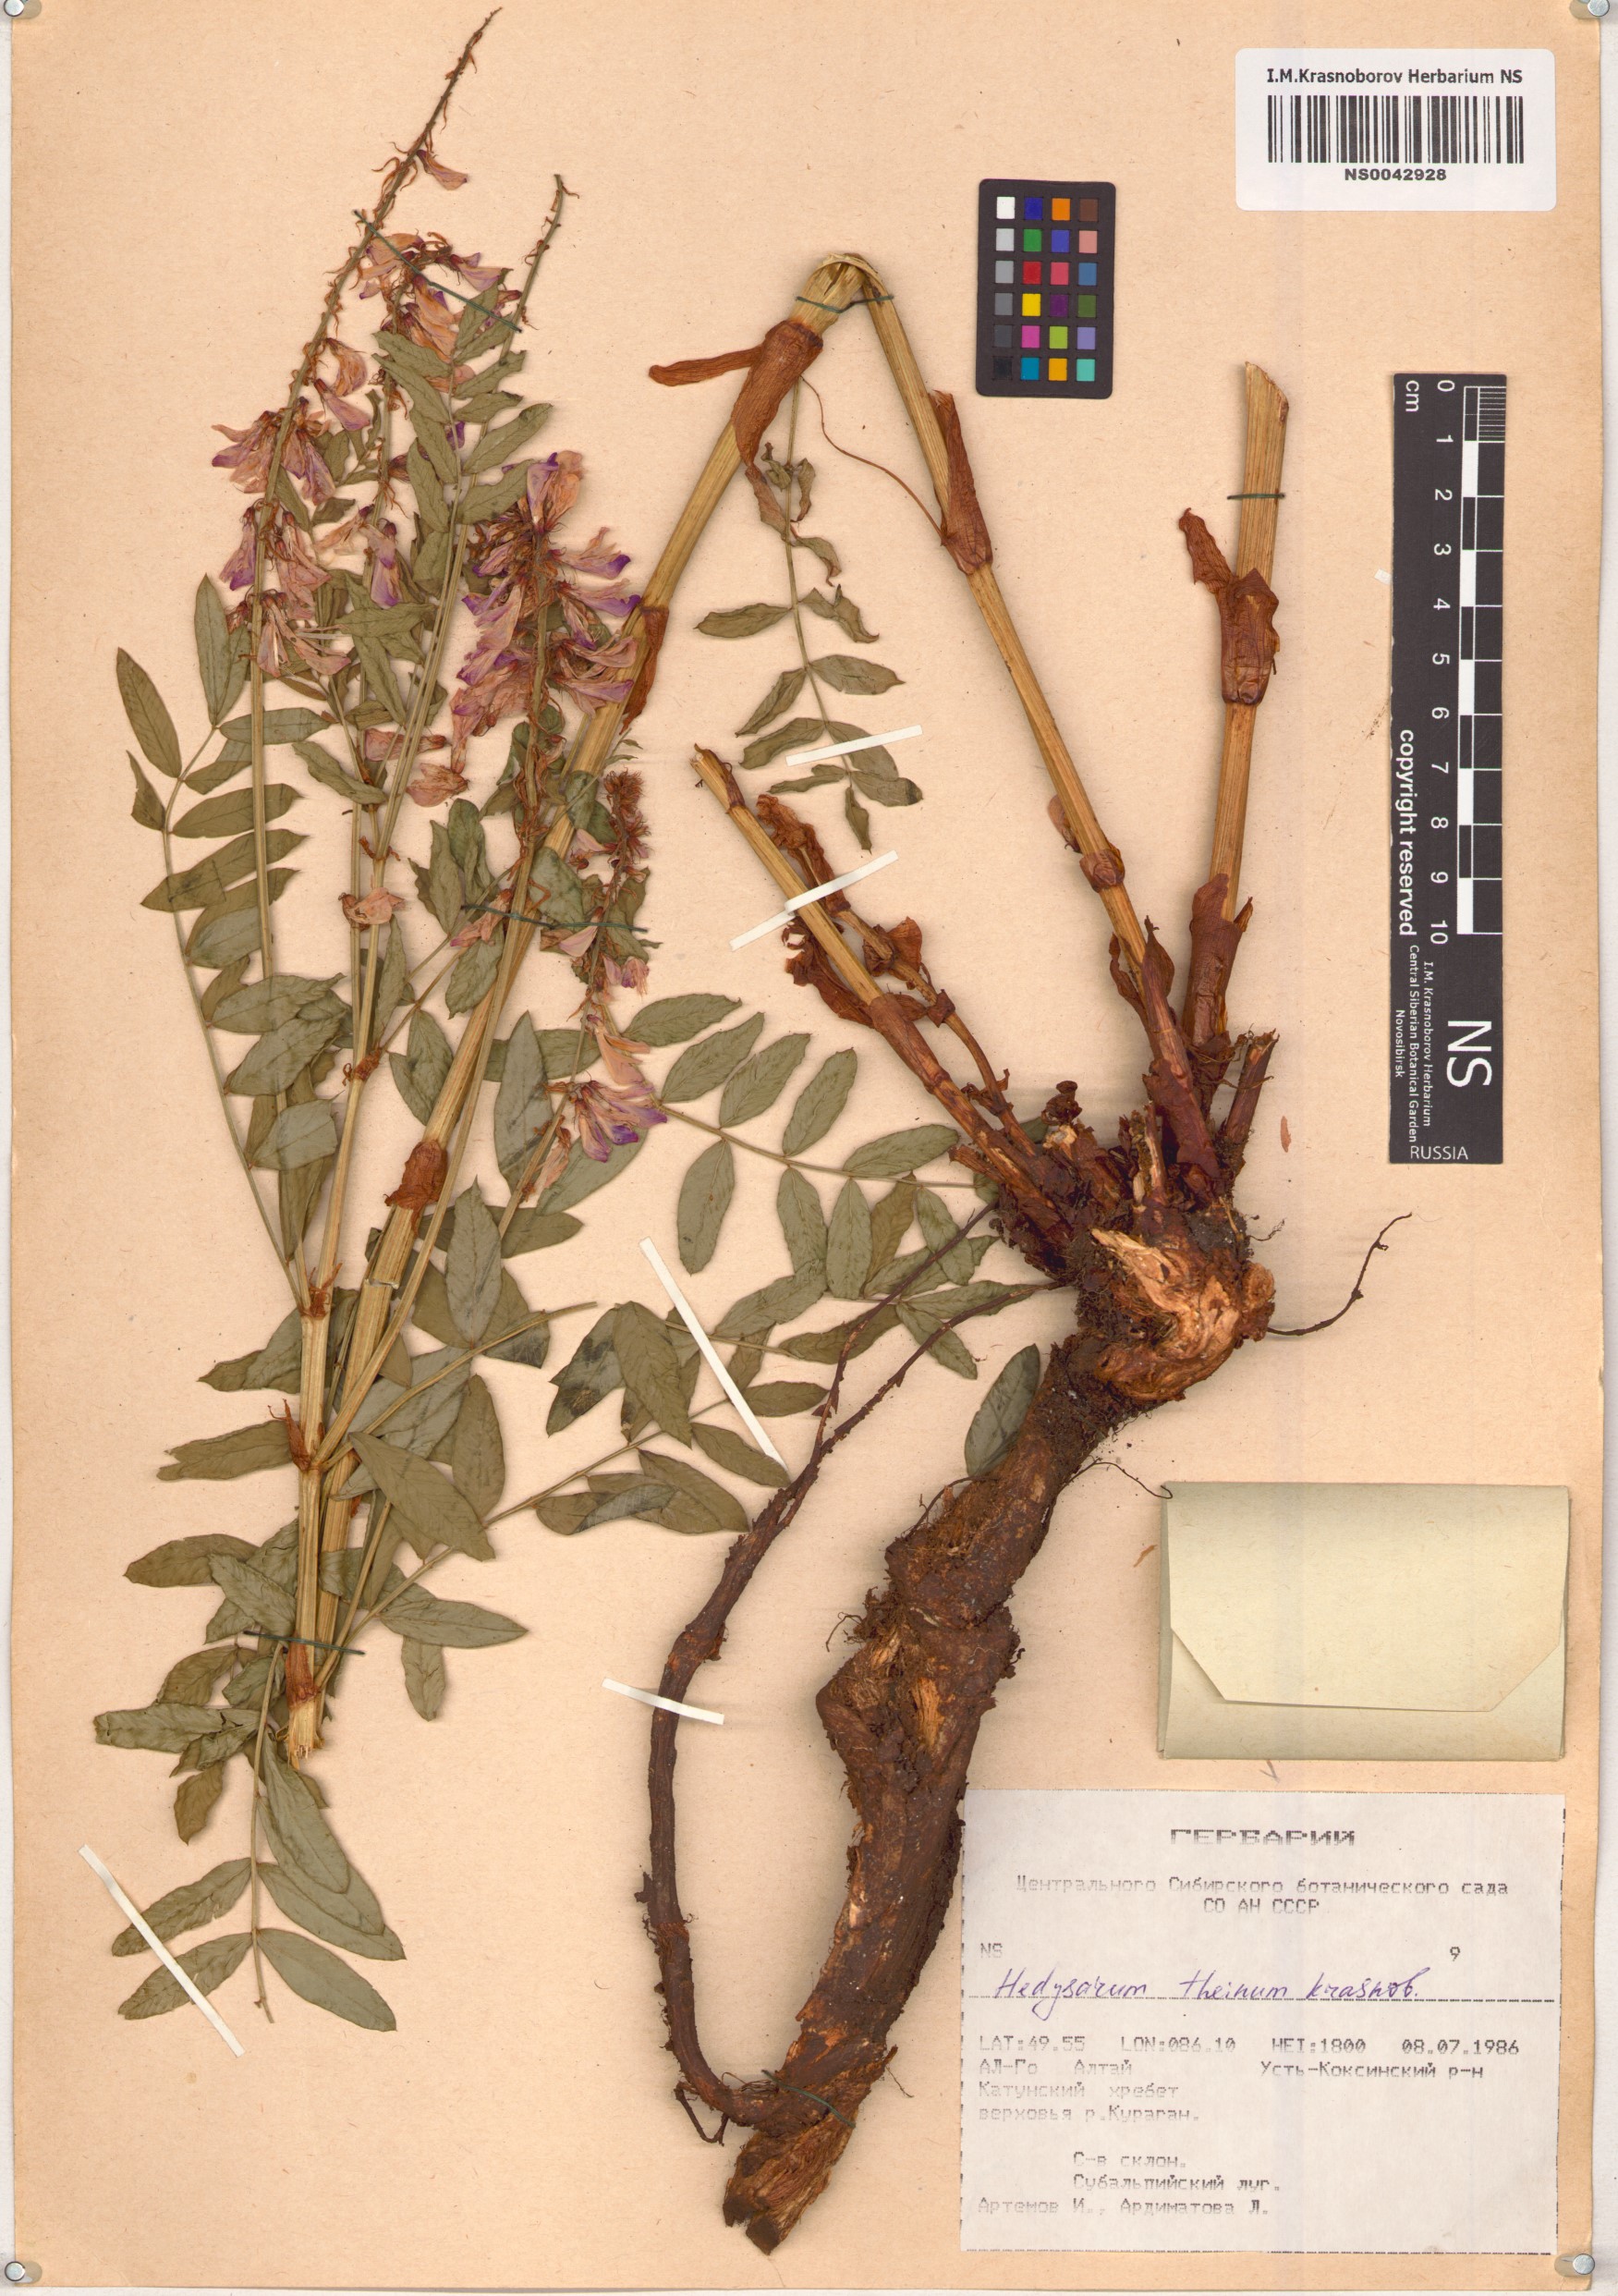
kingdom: Plantae
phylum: Tracheophyta
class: Magnoliopsida
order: Fabales
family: Fabaceae
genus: Hedysarum
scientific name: Hedysarum theinum
